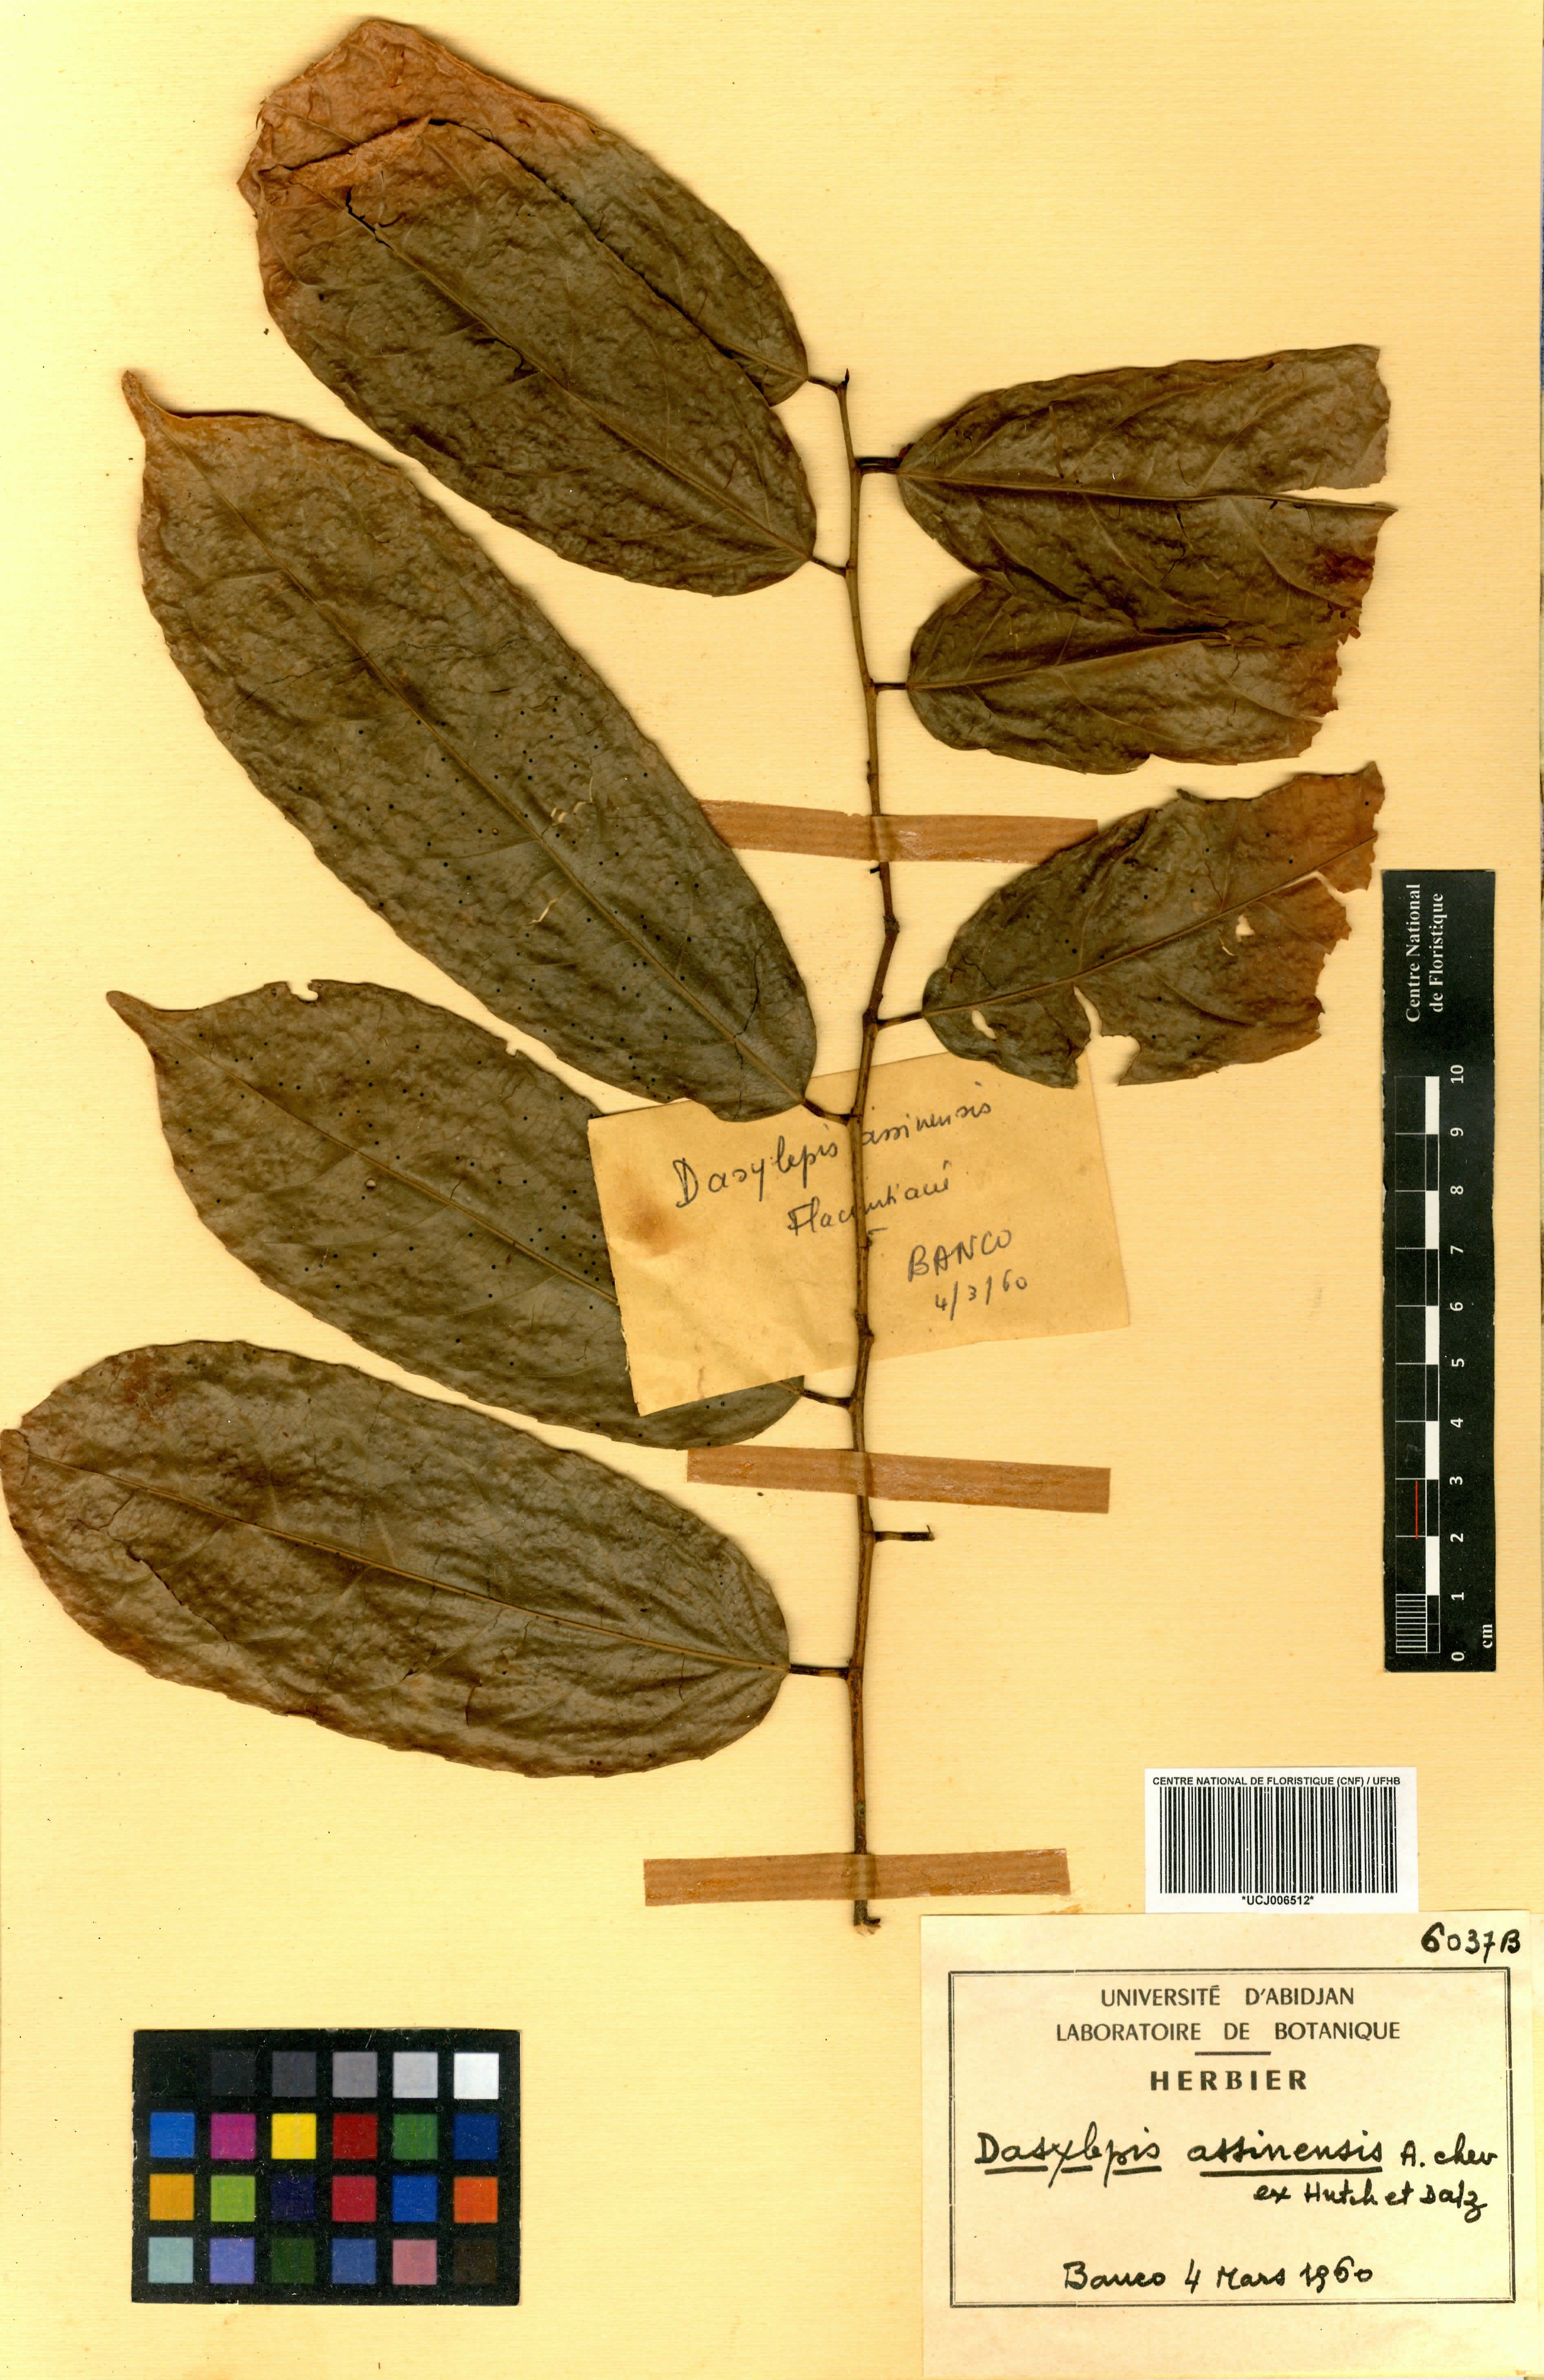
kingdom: Plantae
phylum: Tracheophyta
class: Magnoliopsida
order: Malpighiales
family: Achariaceae
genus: Dasylepis
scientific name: Dasylepis racemosa
